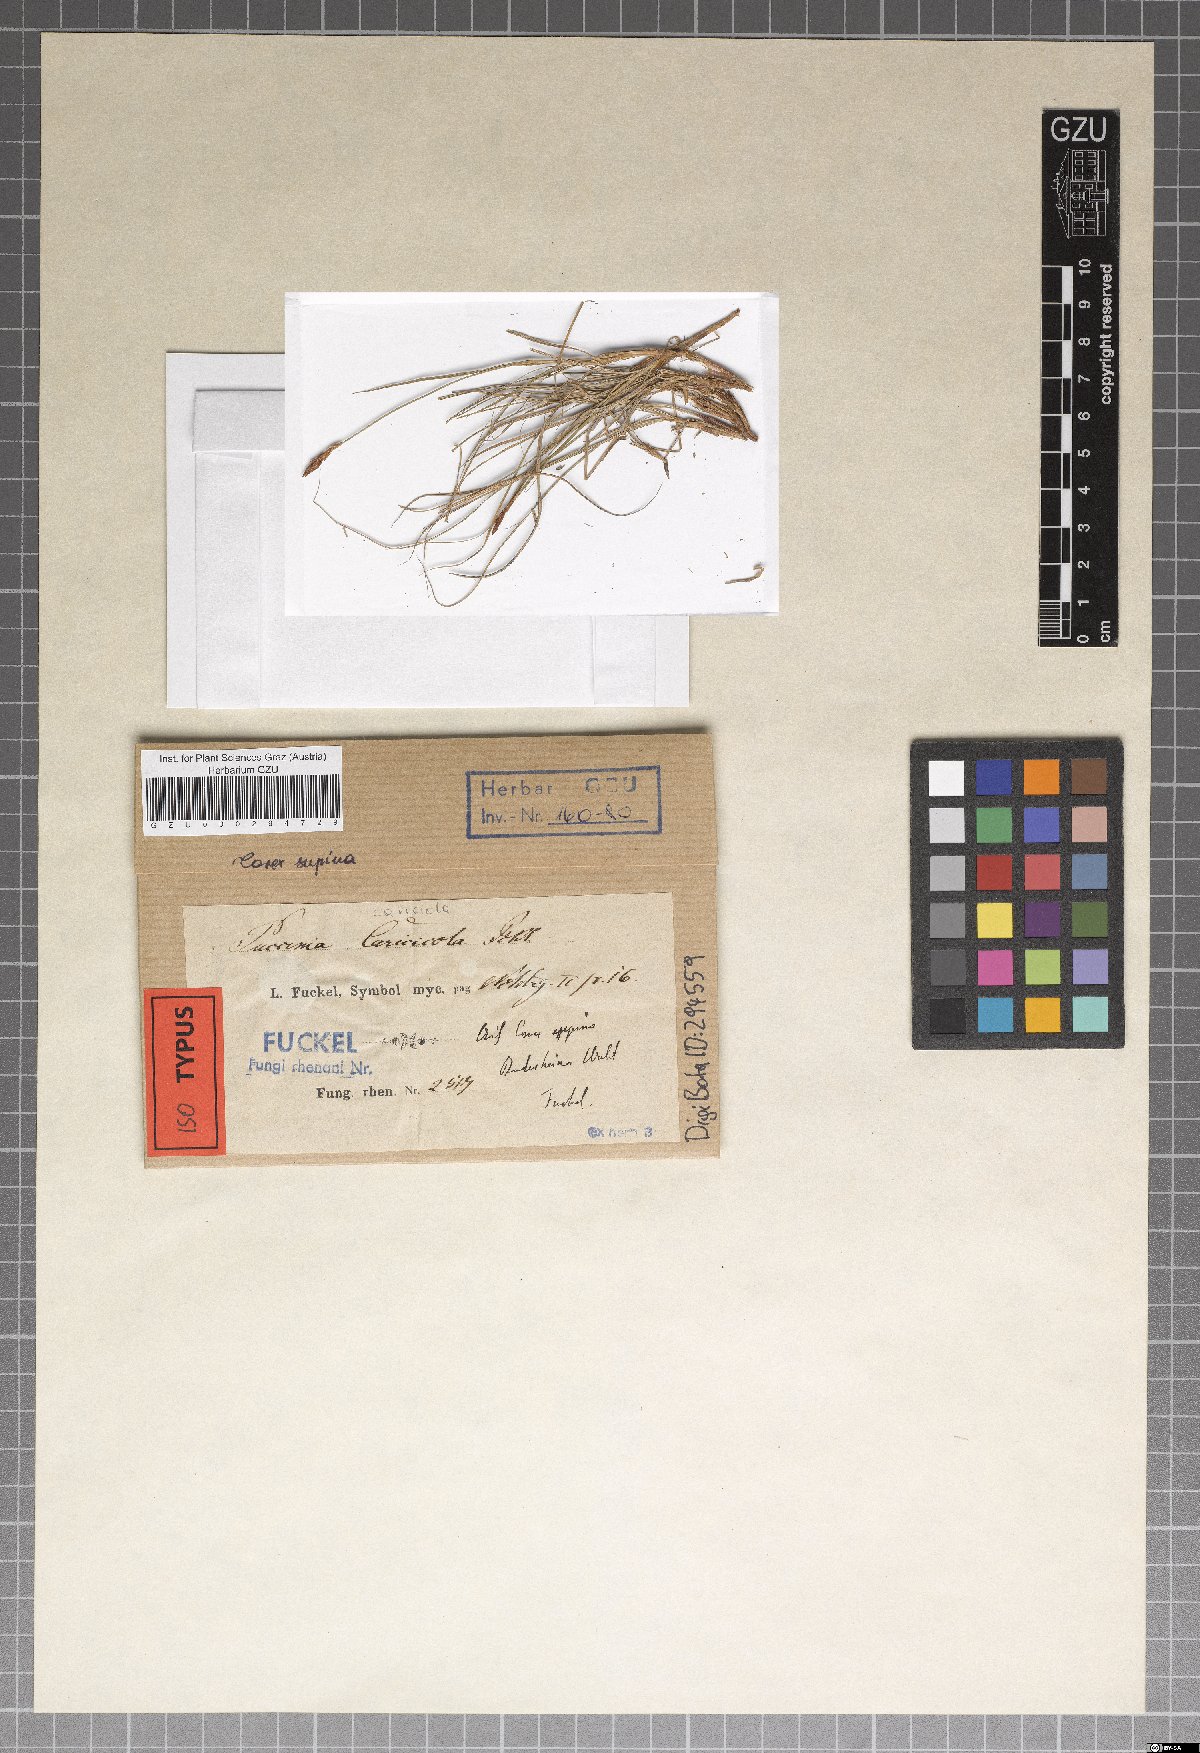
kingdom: Fungi
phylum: Basidiomycota
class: Pucciniomycetes
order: Pucciniales
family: Pucciniaceae
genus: Puccinia
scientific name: Puccinia caricicola
